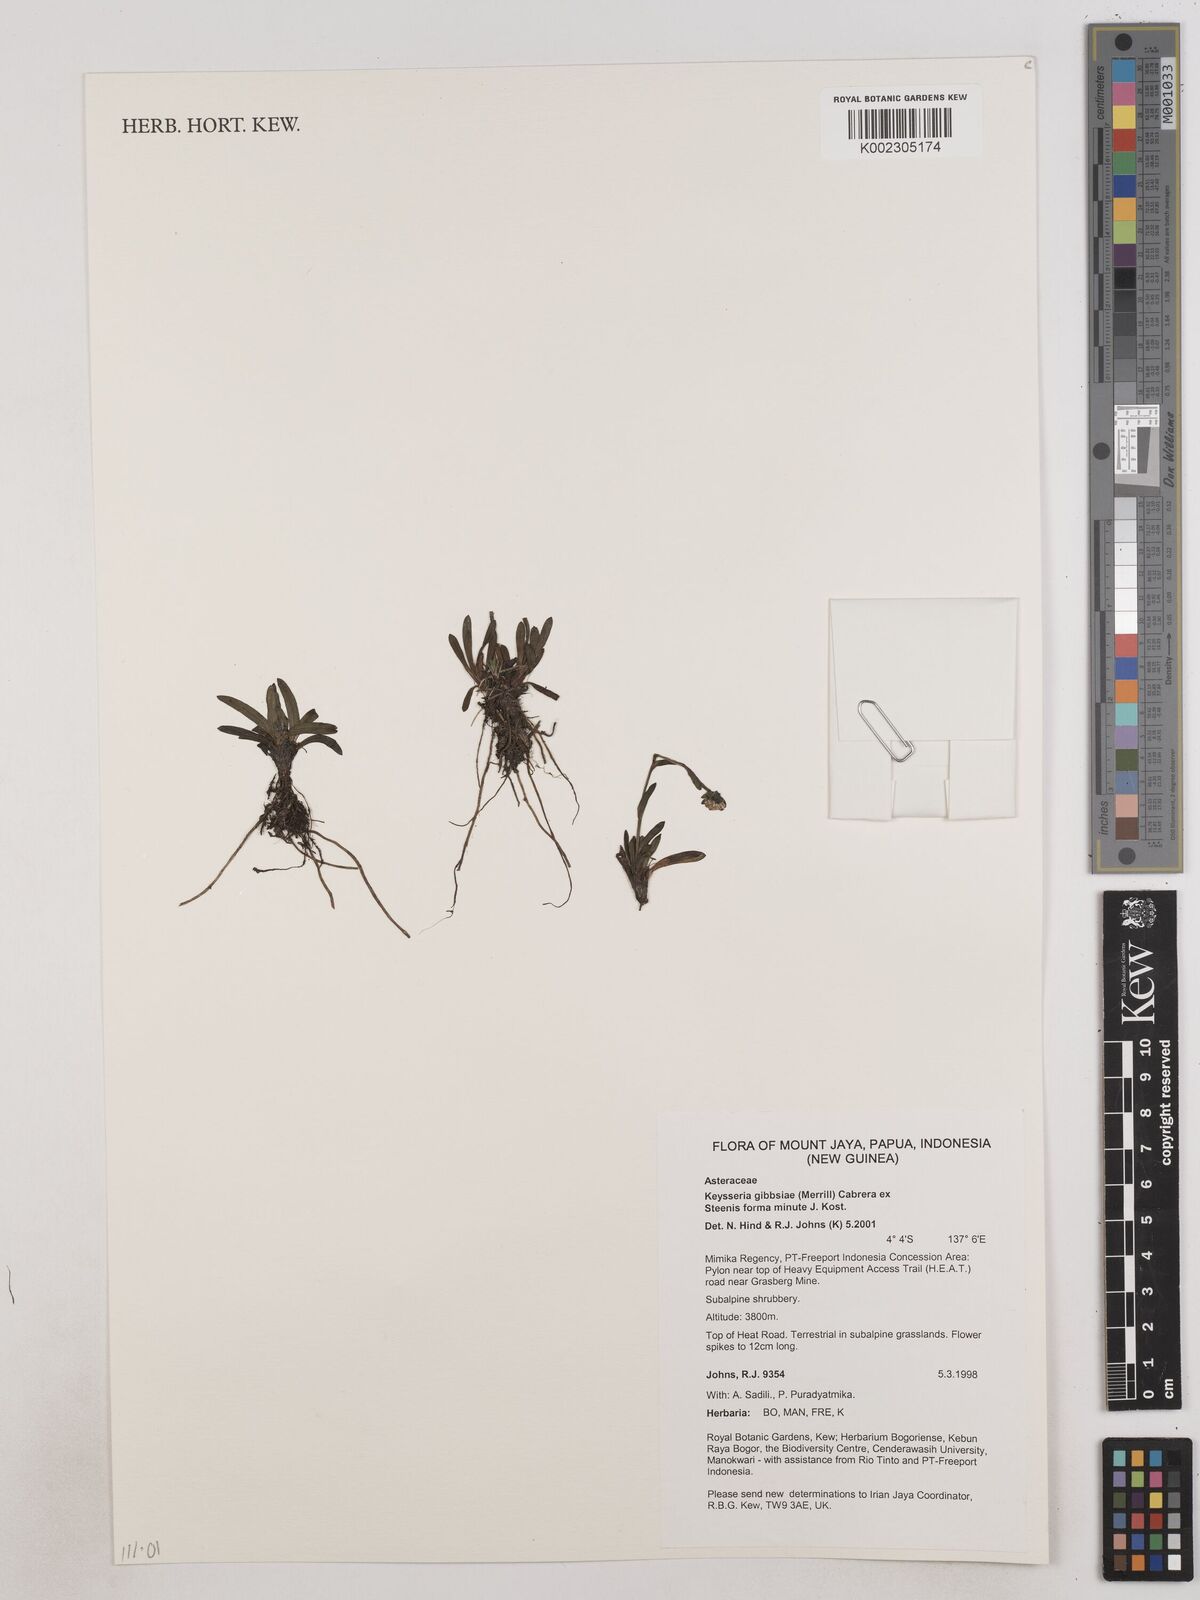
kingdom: Plantae
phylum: Tracheophyta
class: Magnoliopsida
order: Asterales
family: Asteraceae
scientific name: Asteraceae
